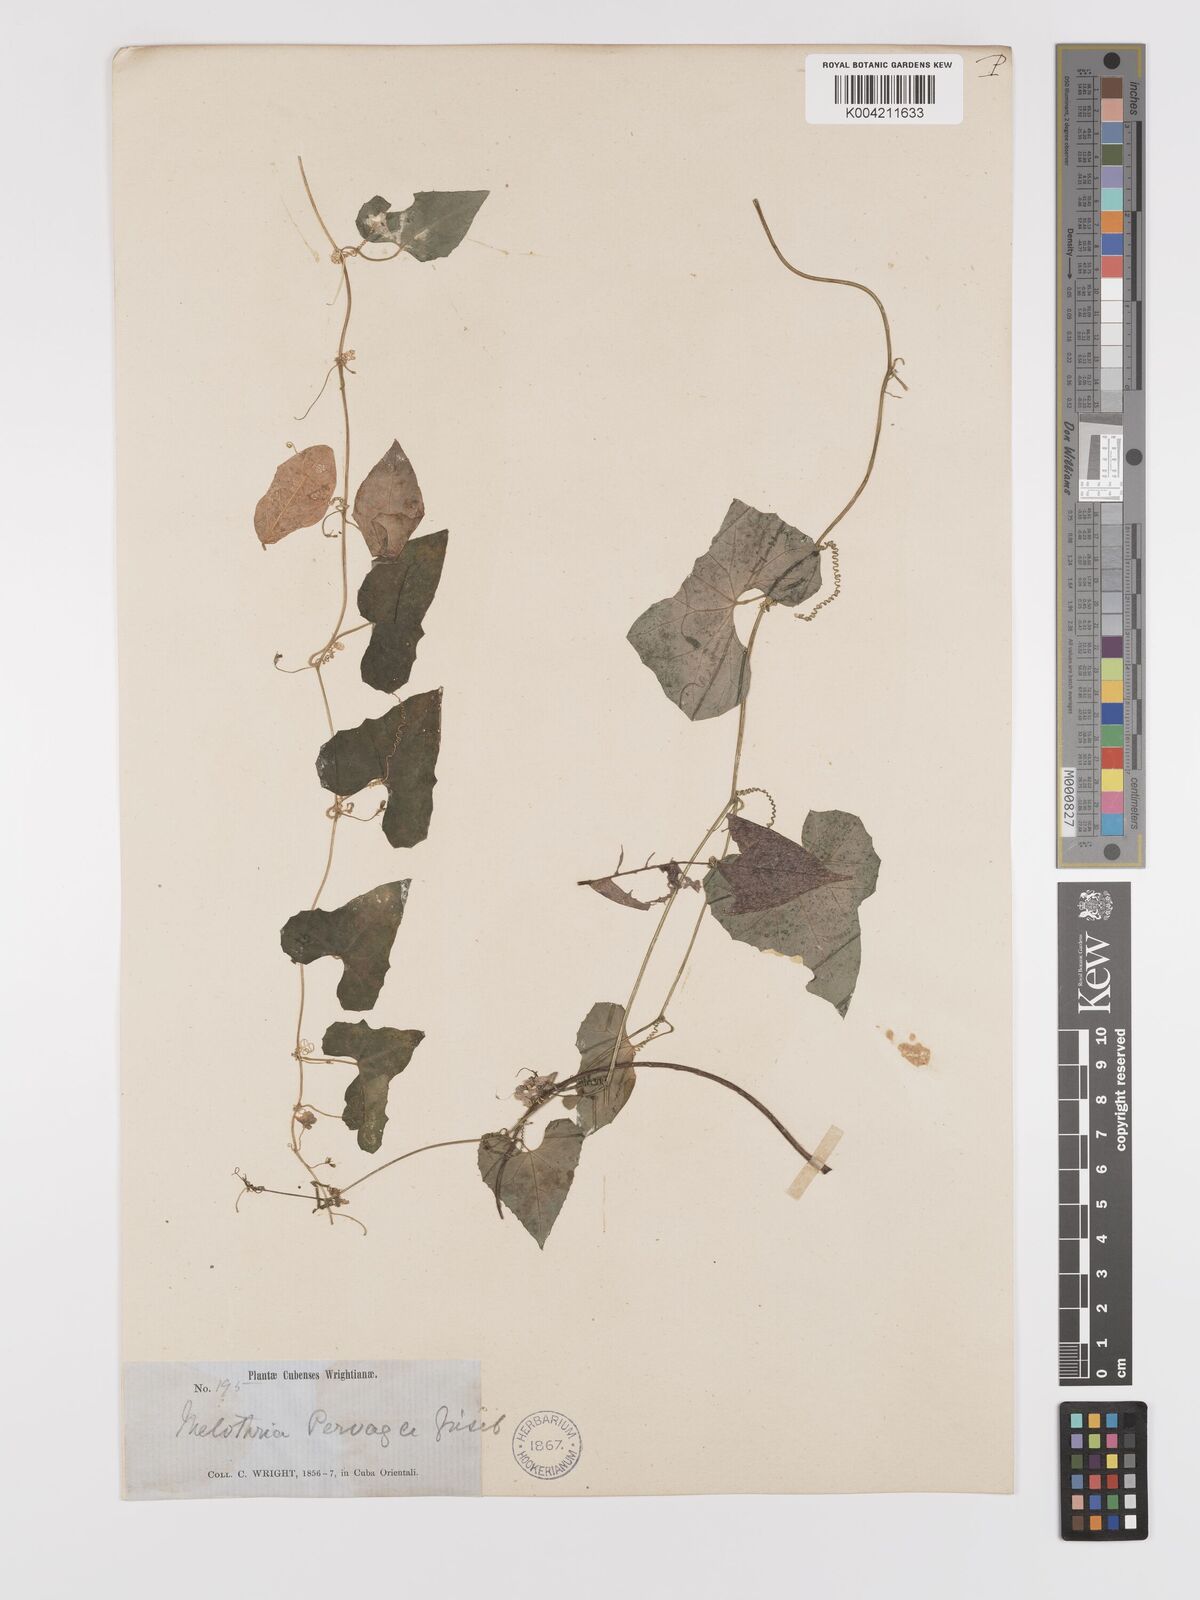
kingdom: Plantae
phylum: Tracheophyta
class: Magnoliopsida
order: Cucurbitales
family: Cucurbitaceae
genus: Melothria
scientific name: Melothria
